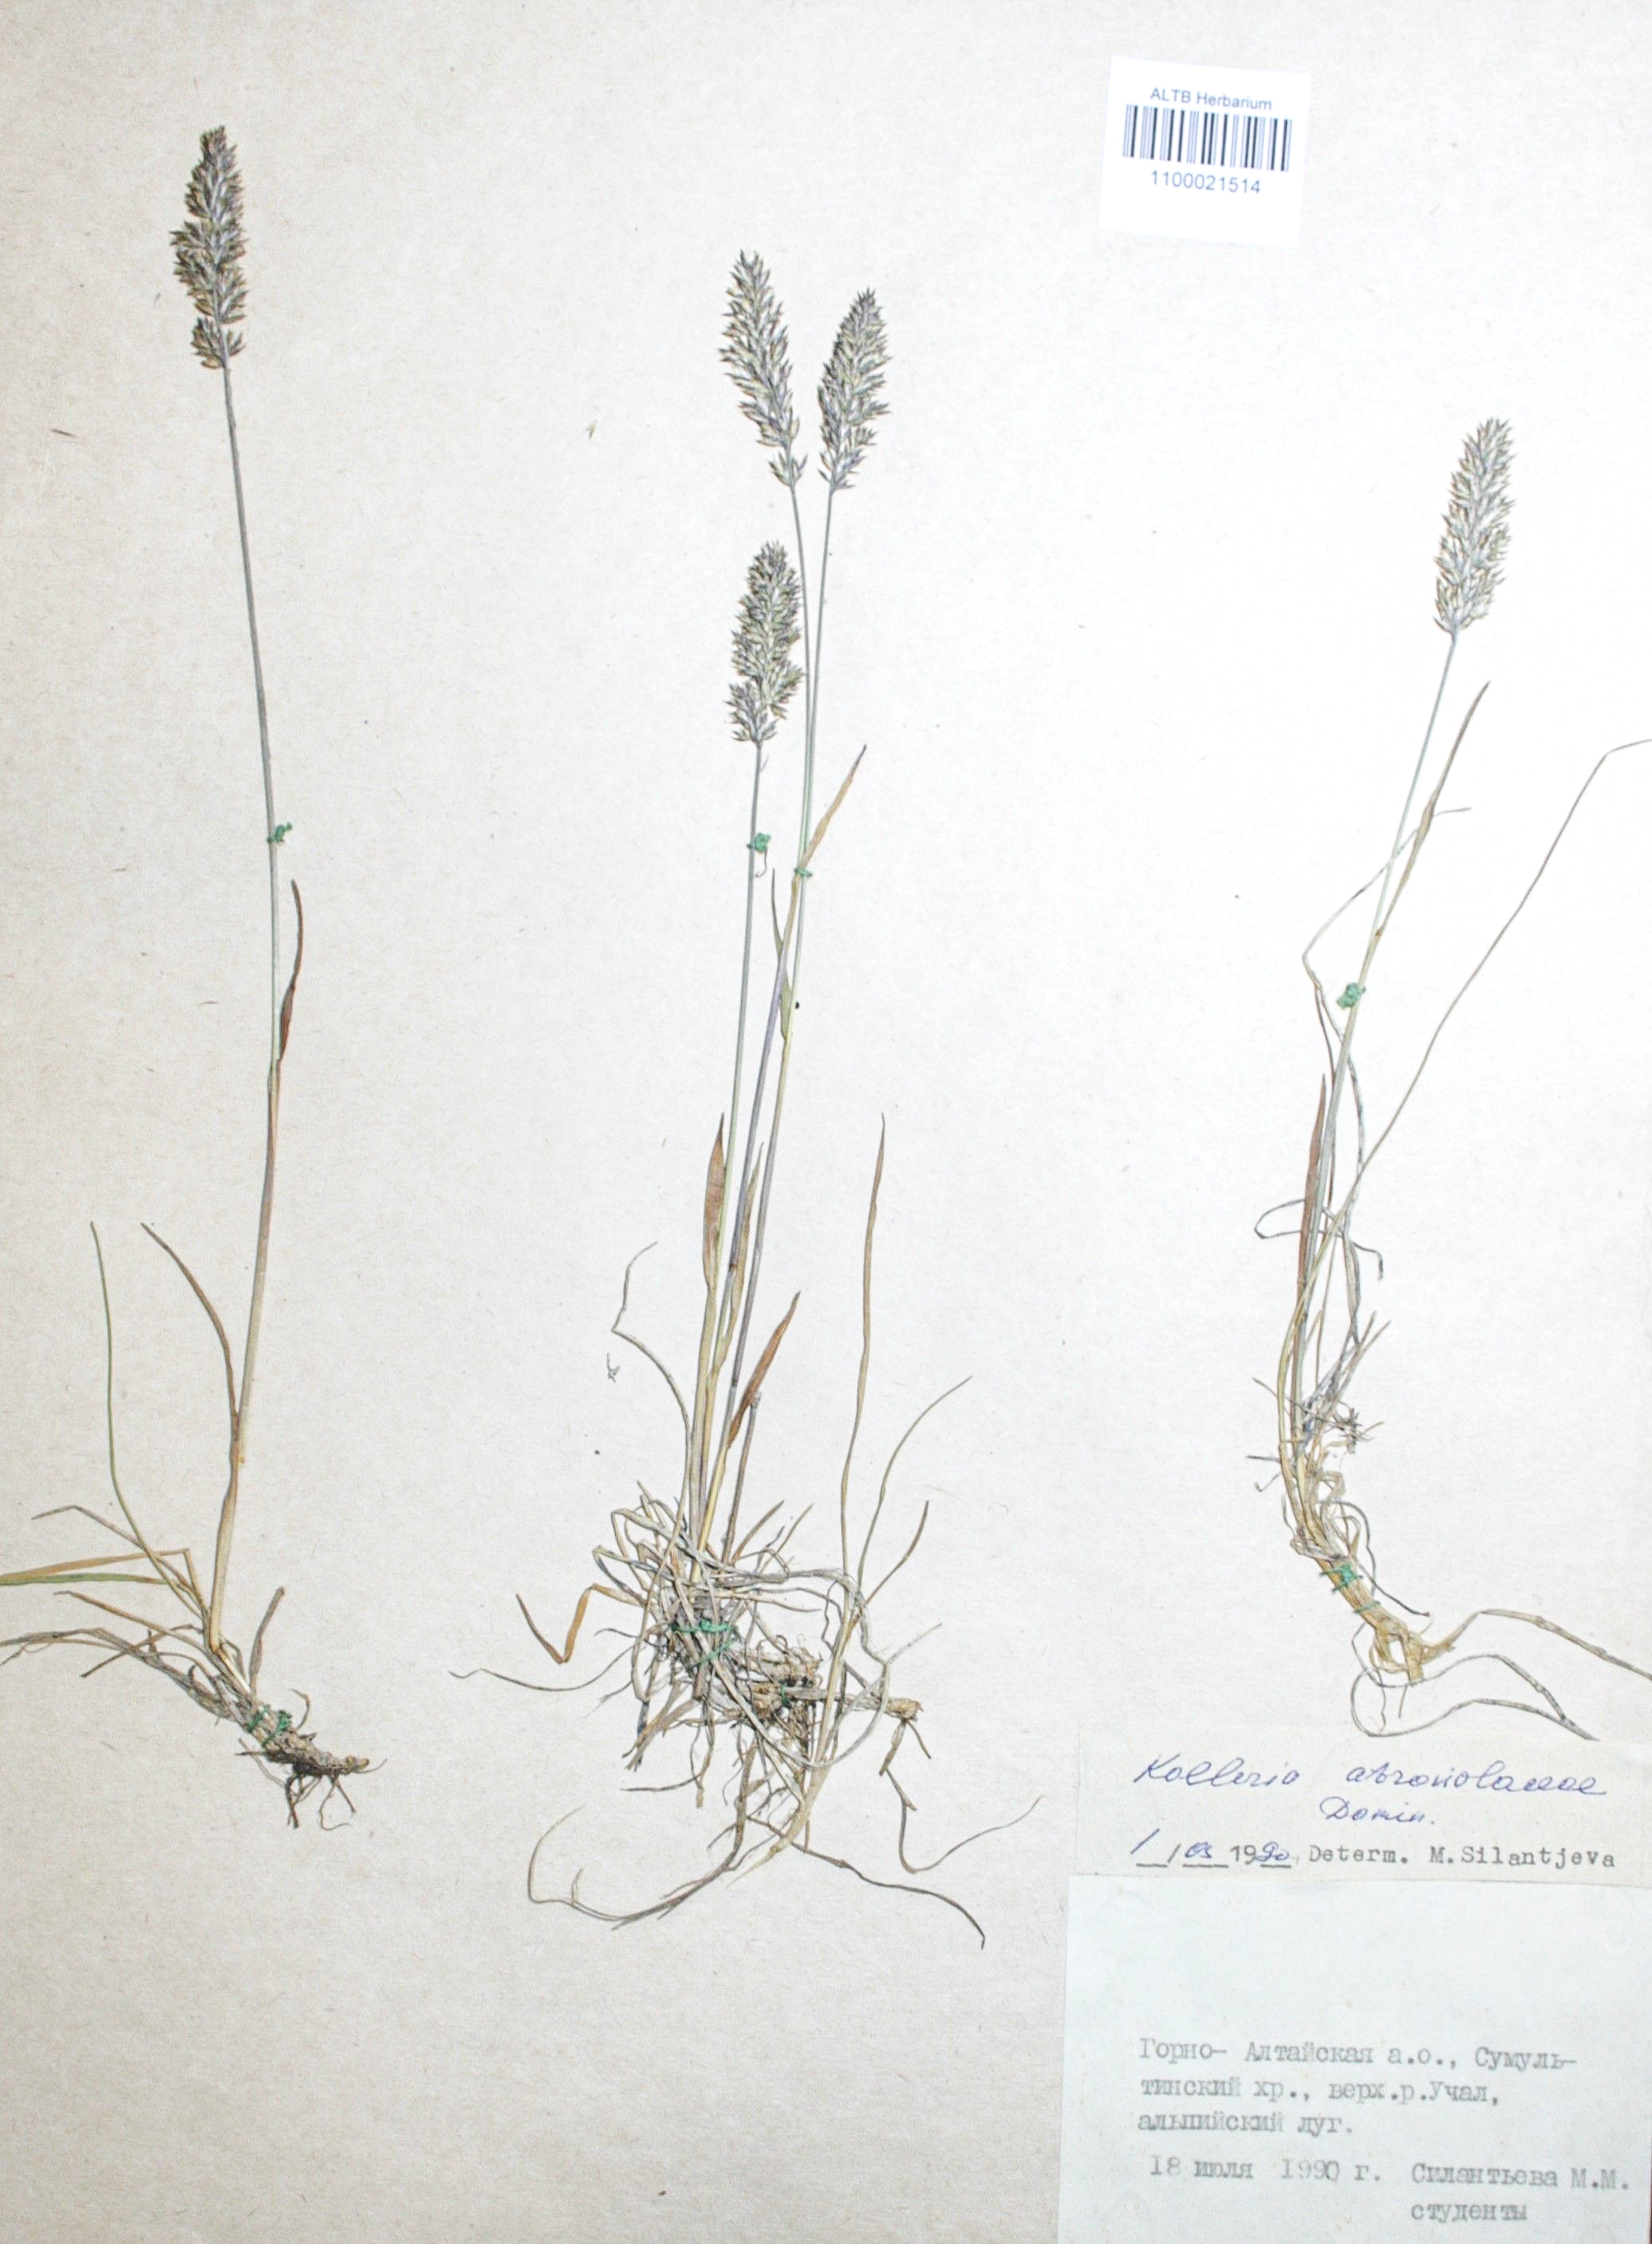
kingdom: Plantae
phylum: Tracheophyta
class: Liliopsida
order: Poales
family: Poaceae
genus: Koeleria
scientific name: Koeleria asiatica
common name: Eurasian junegrass
